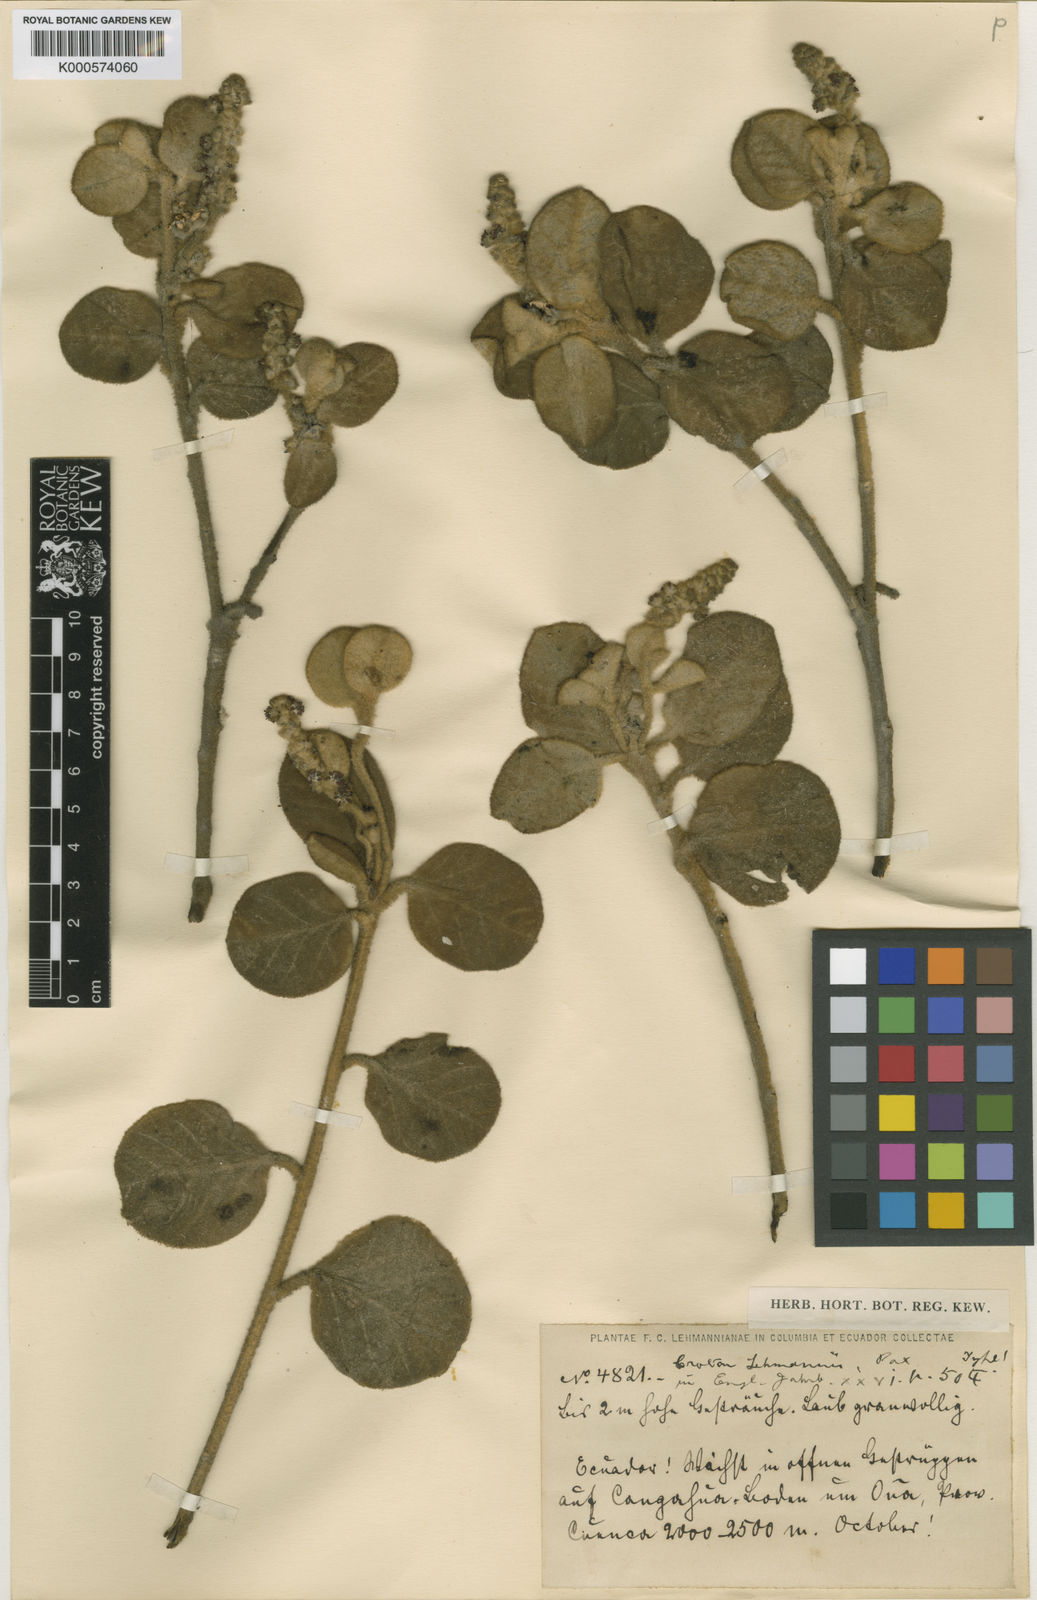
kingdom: Plantae
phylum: Tracheophyta
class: Magnoliopsida
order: Malpighiales
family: Euphorbiaceae
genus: Croton
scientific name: Croton lehmannii
